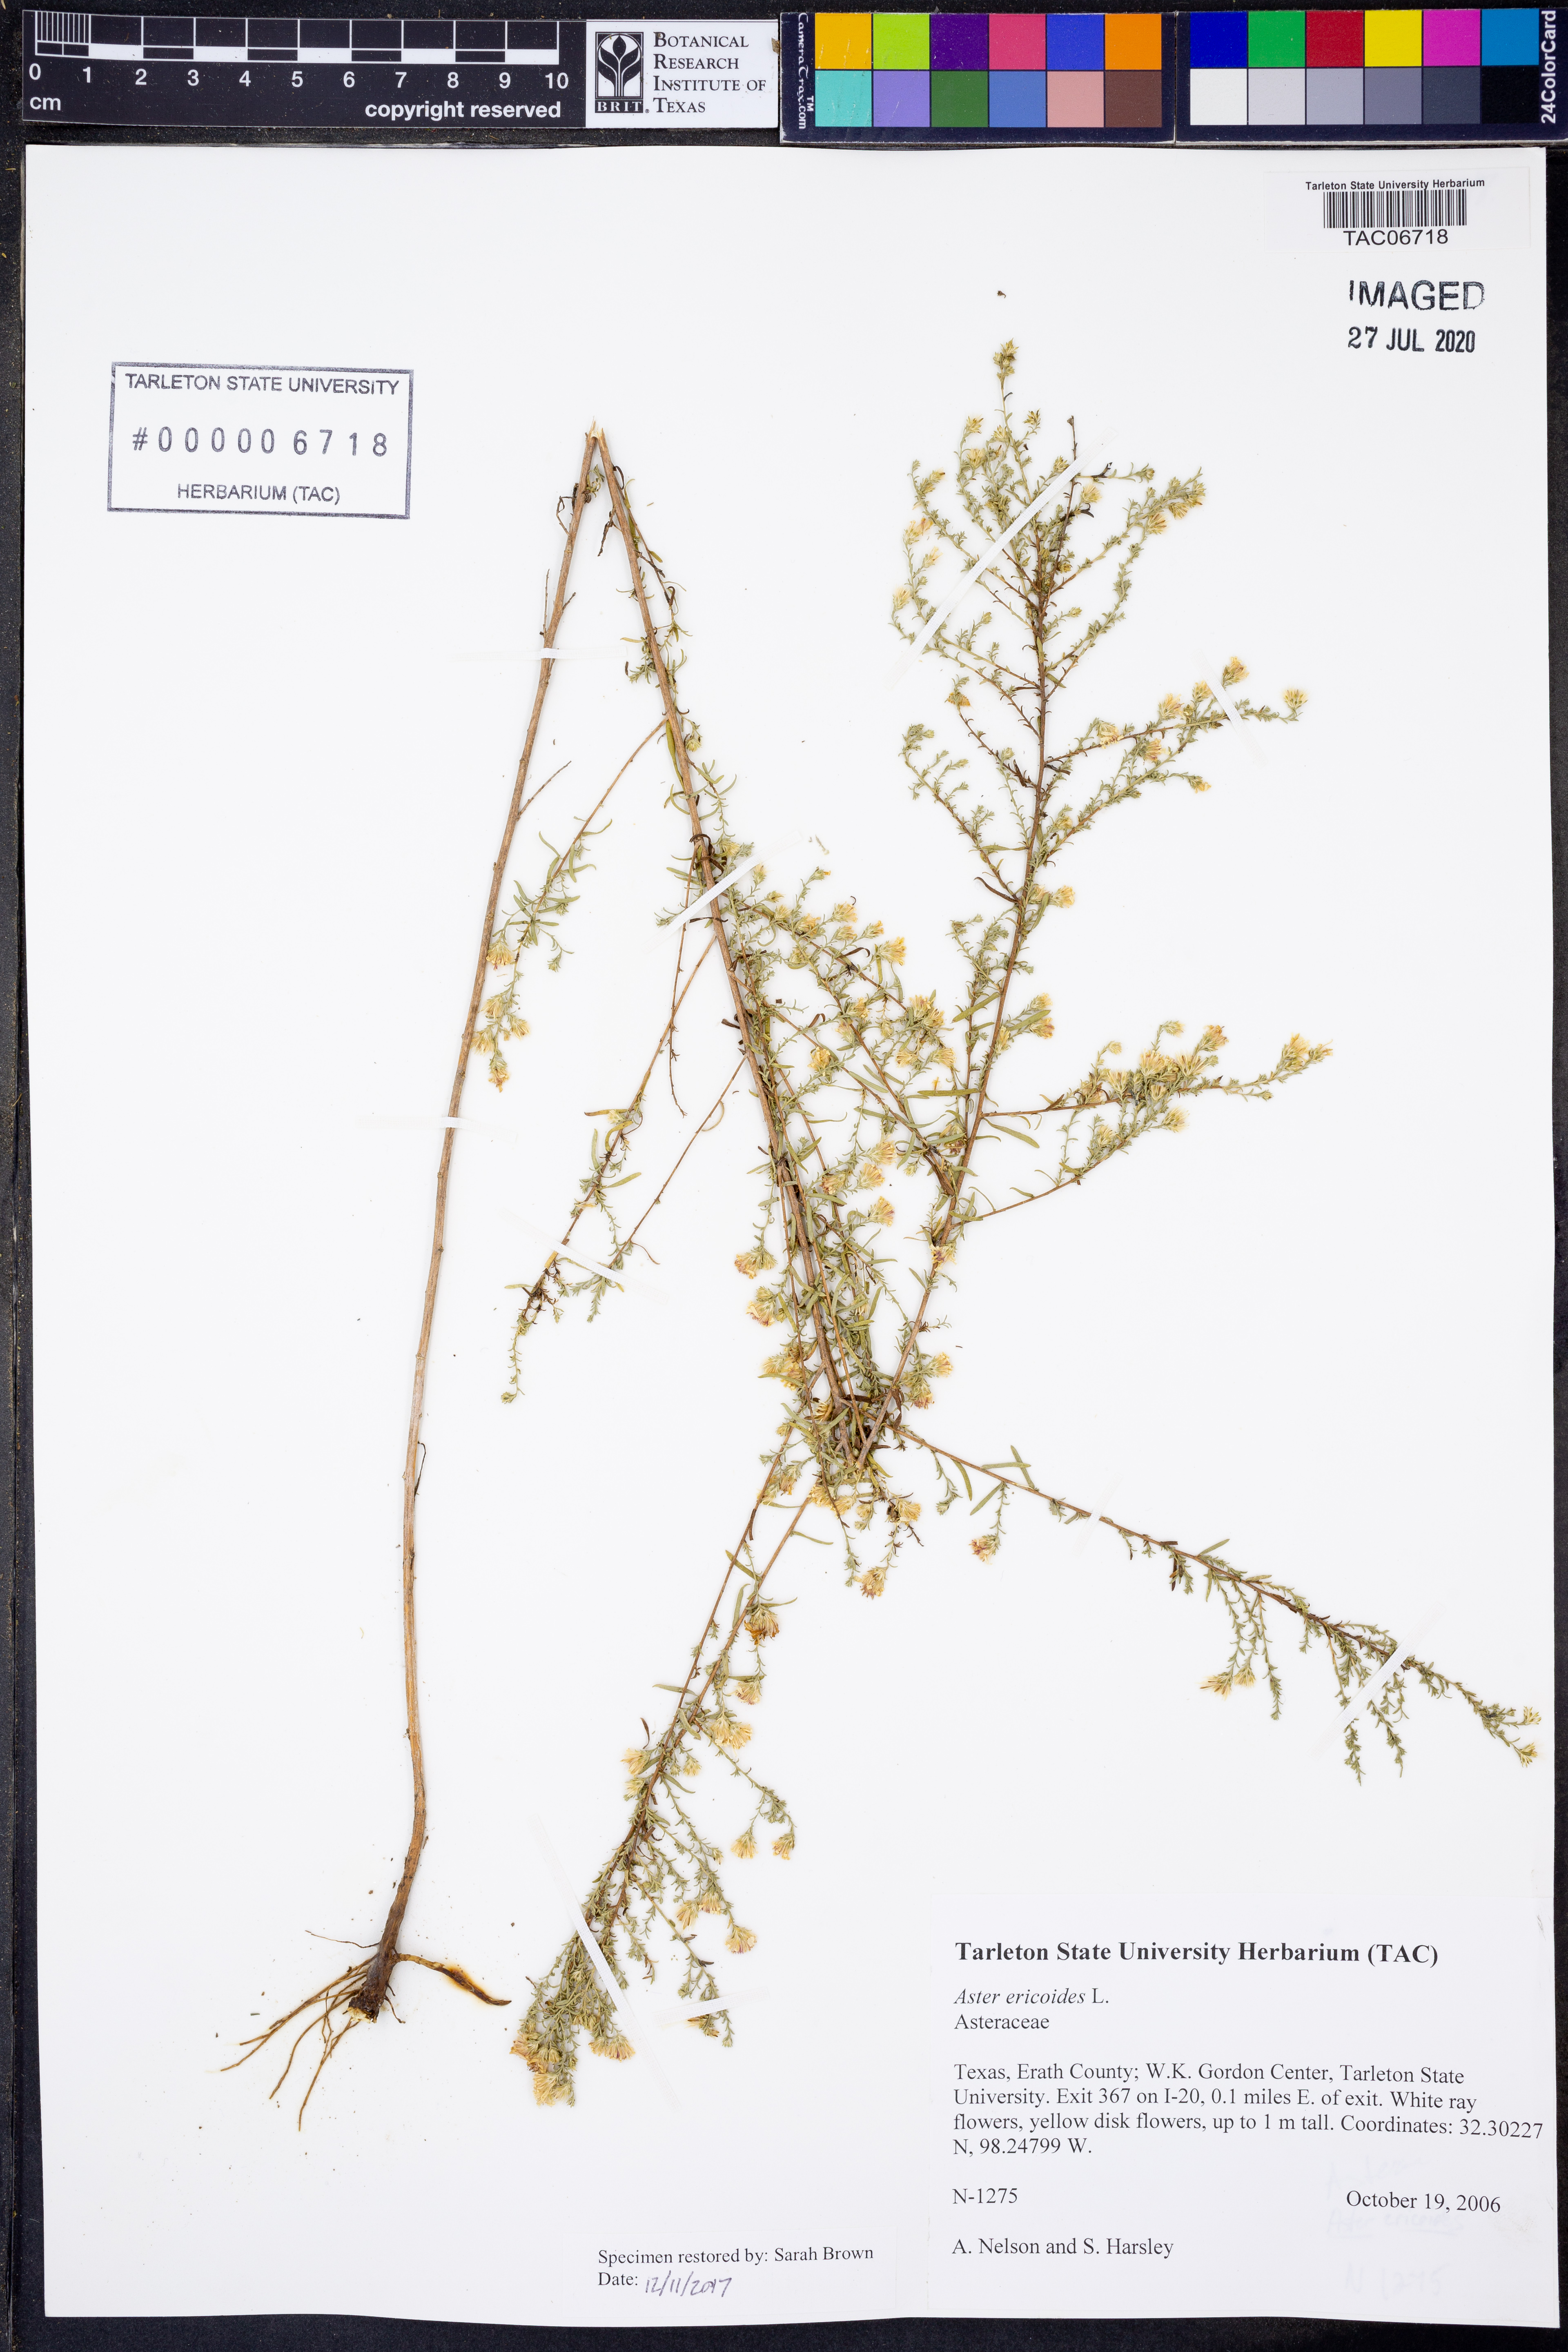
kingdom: Plantae
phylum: Tracheophyta
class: Magnoliopsida
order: Asterales
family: Asteraceae
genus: Symphyotrichum
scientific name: Symphyotrichum ericoides
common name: Heath aster
